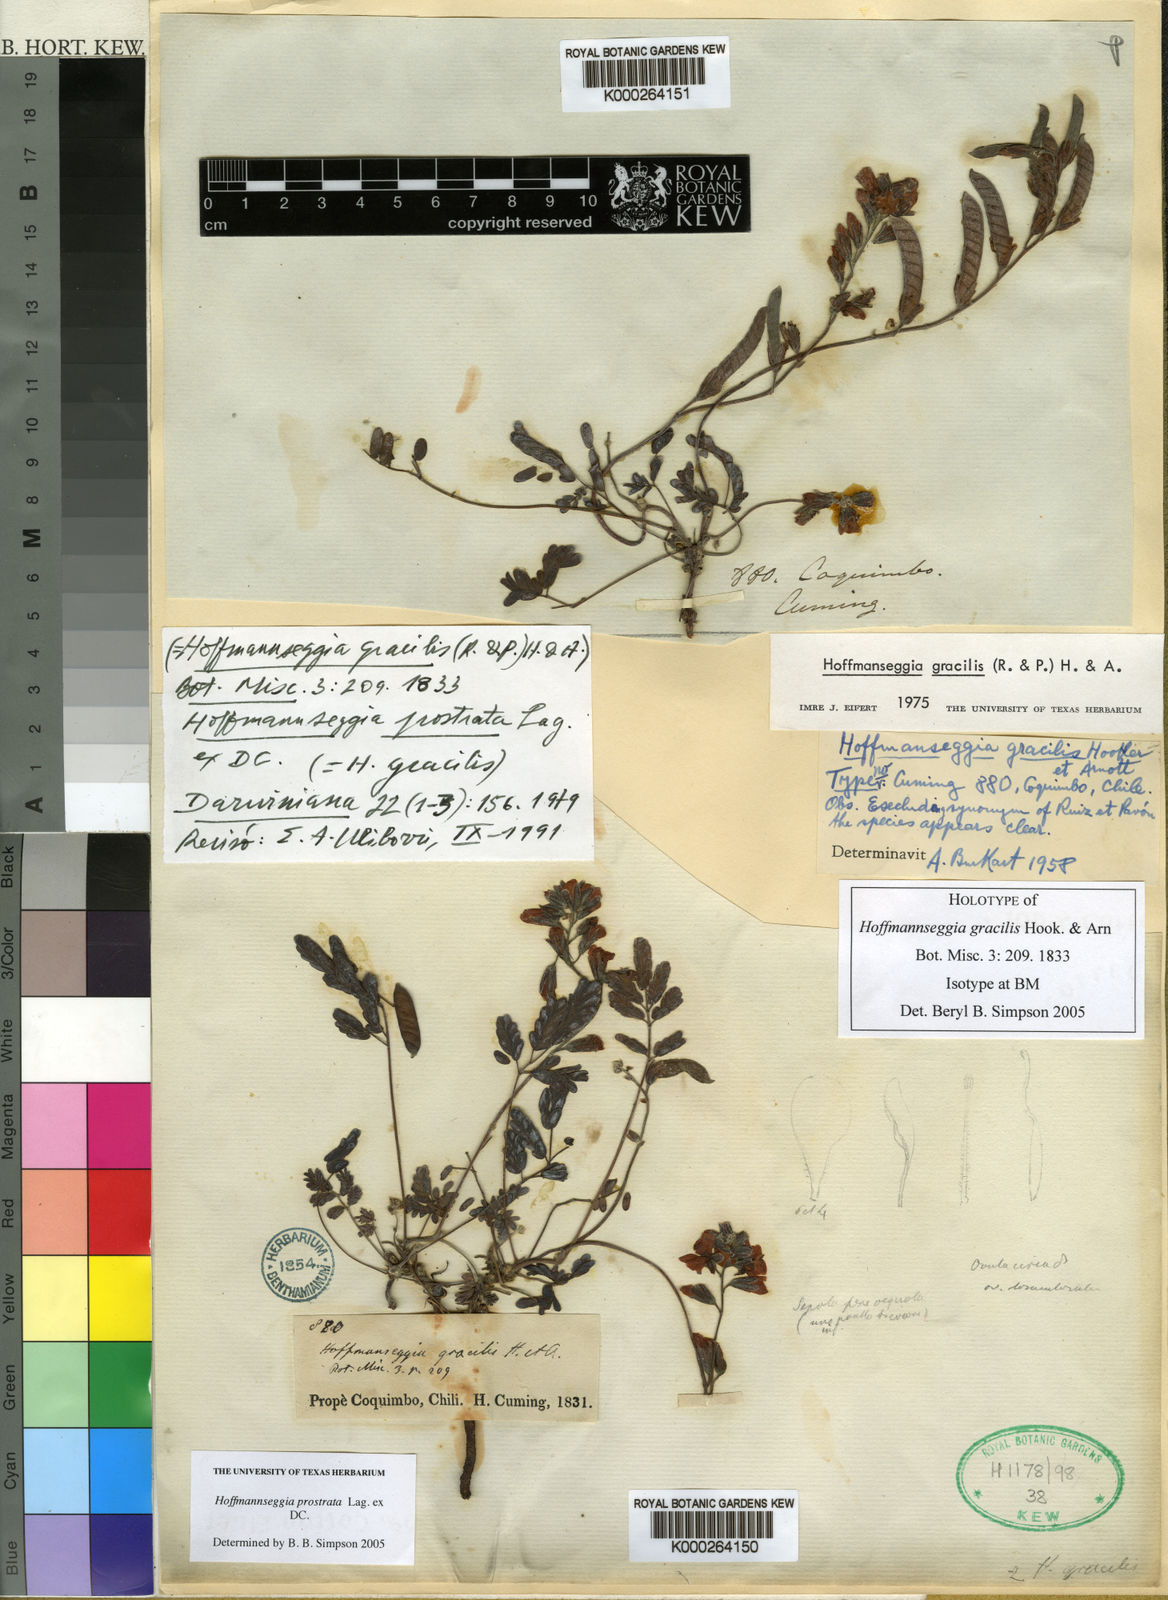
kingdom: Plantae
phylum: Tracheophyta
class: Magnoliopsida
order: Fabales
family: Fabaceae
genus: Hoffmannseggia
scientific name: Hoffmannseggia
